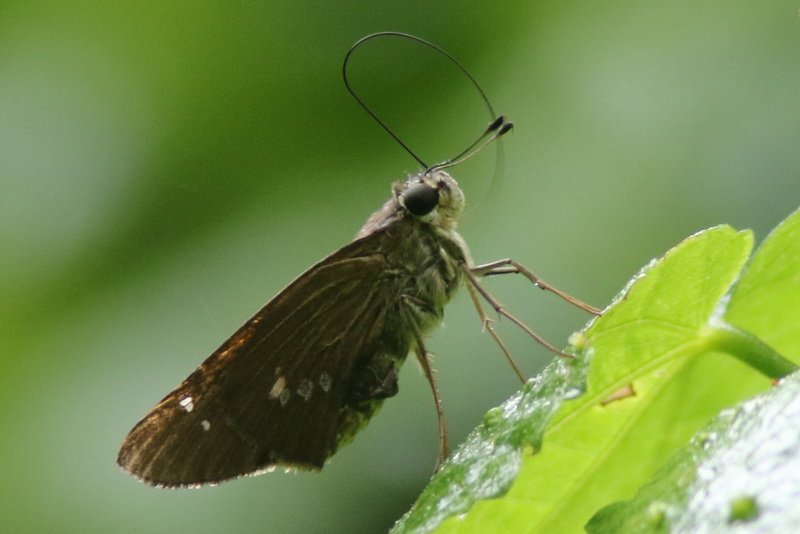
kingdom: Animalia
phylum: Arthropoda
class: Insecta
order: Lepidoptera
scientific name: Lepidoptera
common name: Butterflies
